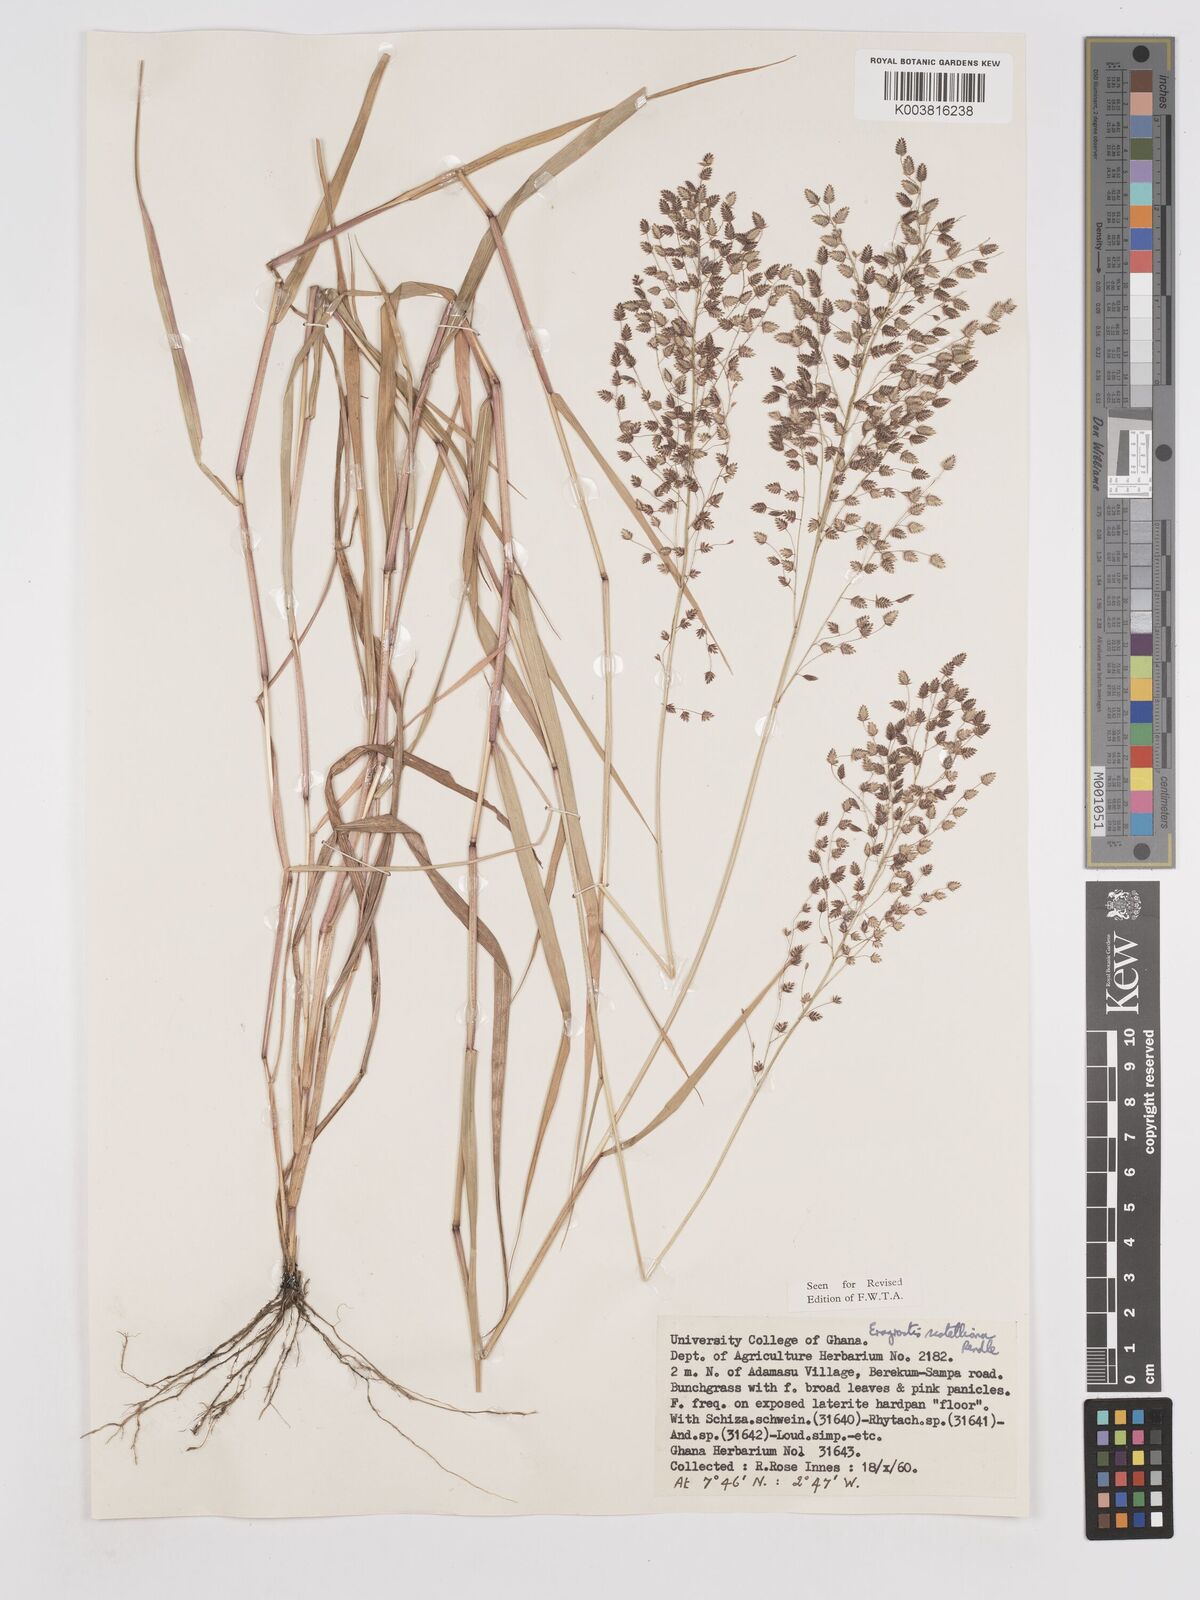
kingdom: Plantae
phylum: Tracheophyta
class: Liliopsida
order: Poales
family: Poaceae
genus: Eragrostis
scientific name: Eragrostis scotelliana
